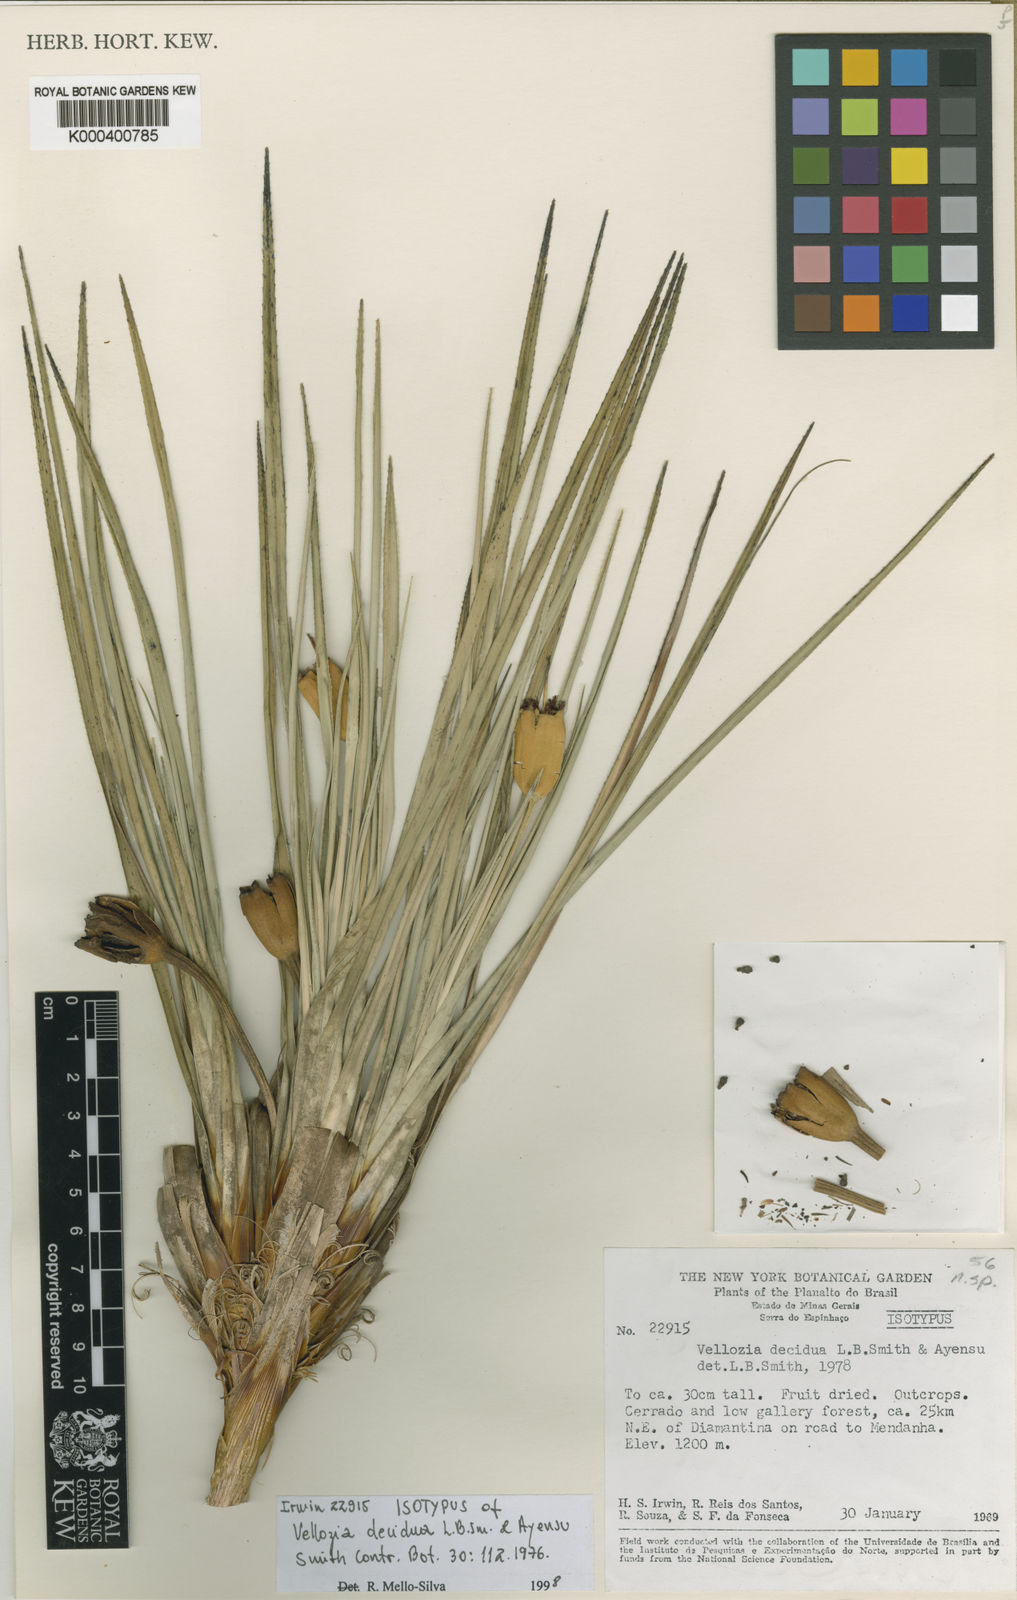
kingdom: Plantae
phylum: Tracheophyta
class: Liliopsida
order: Pandanales
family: Velloziaceae
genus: Vellozia
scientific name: Vellozia decidua
